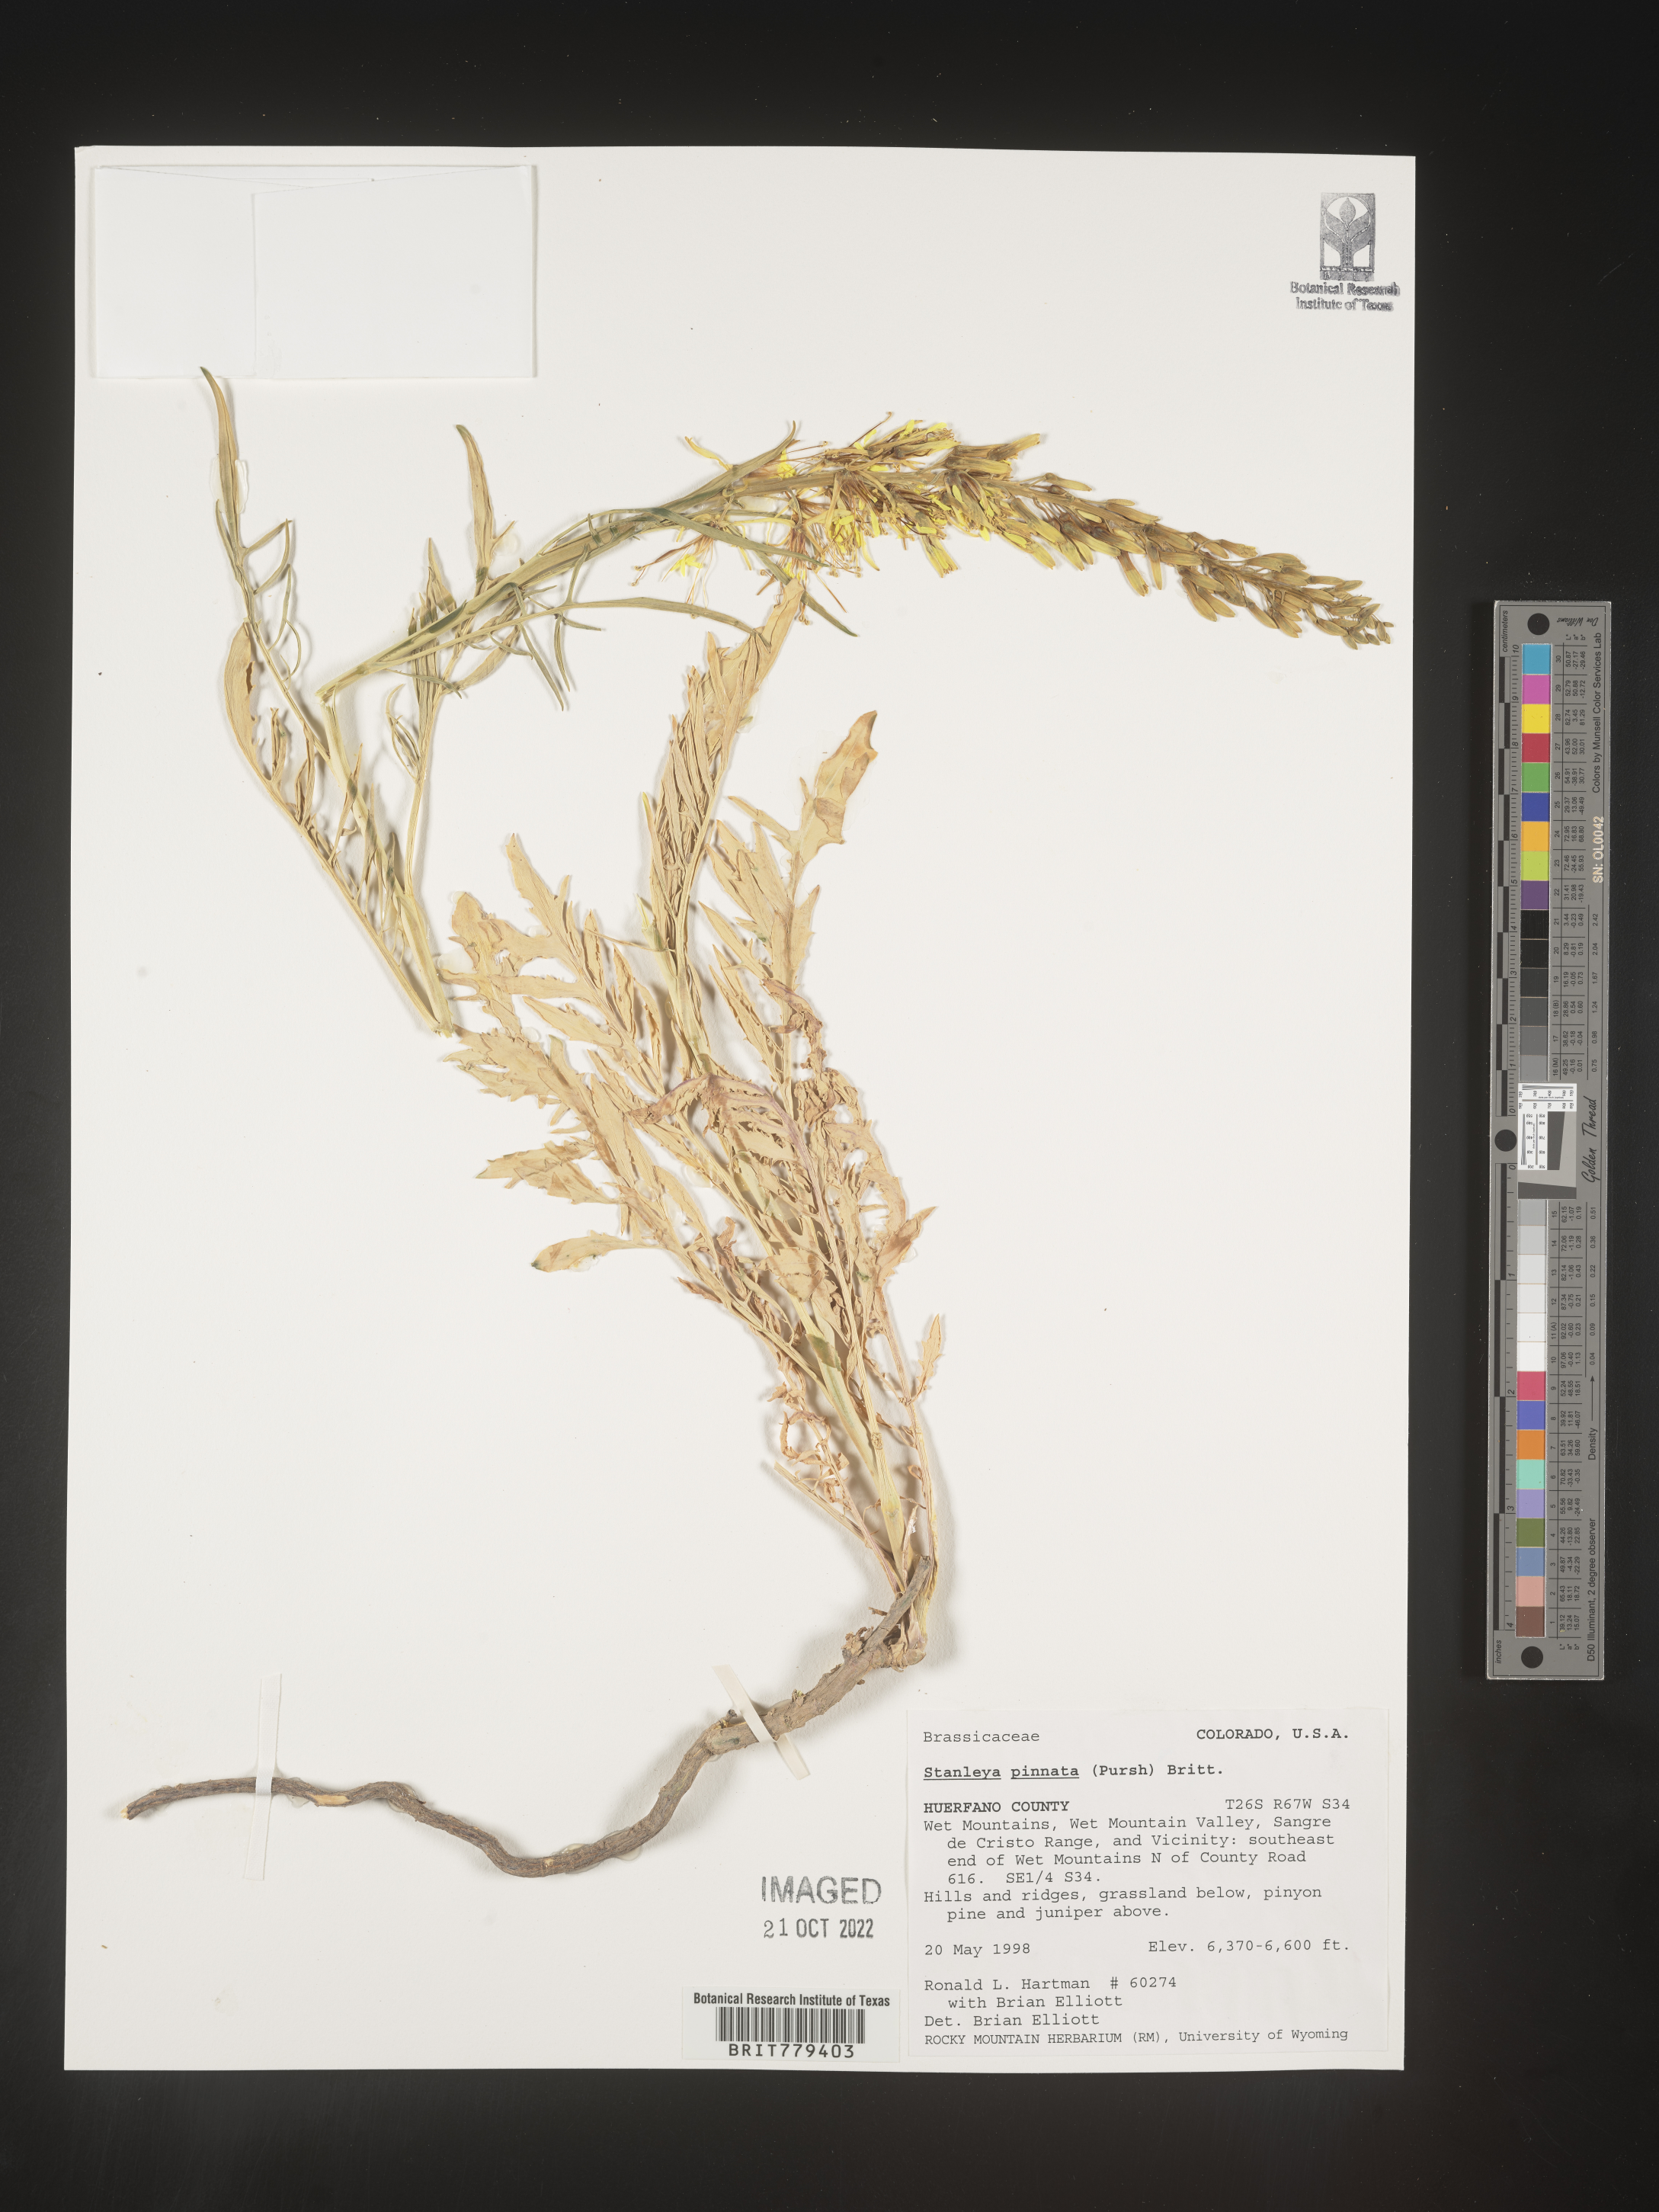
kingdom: Plantae
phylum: Tracheophyta
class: Magnoliopsida
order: Brassicales
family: Brassicaceae
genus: Stanleya
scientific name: Stanleya pinnata
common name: Prince's-plume
